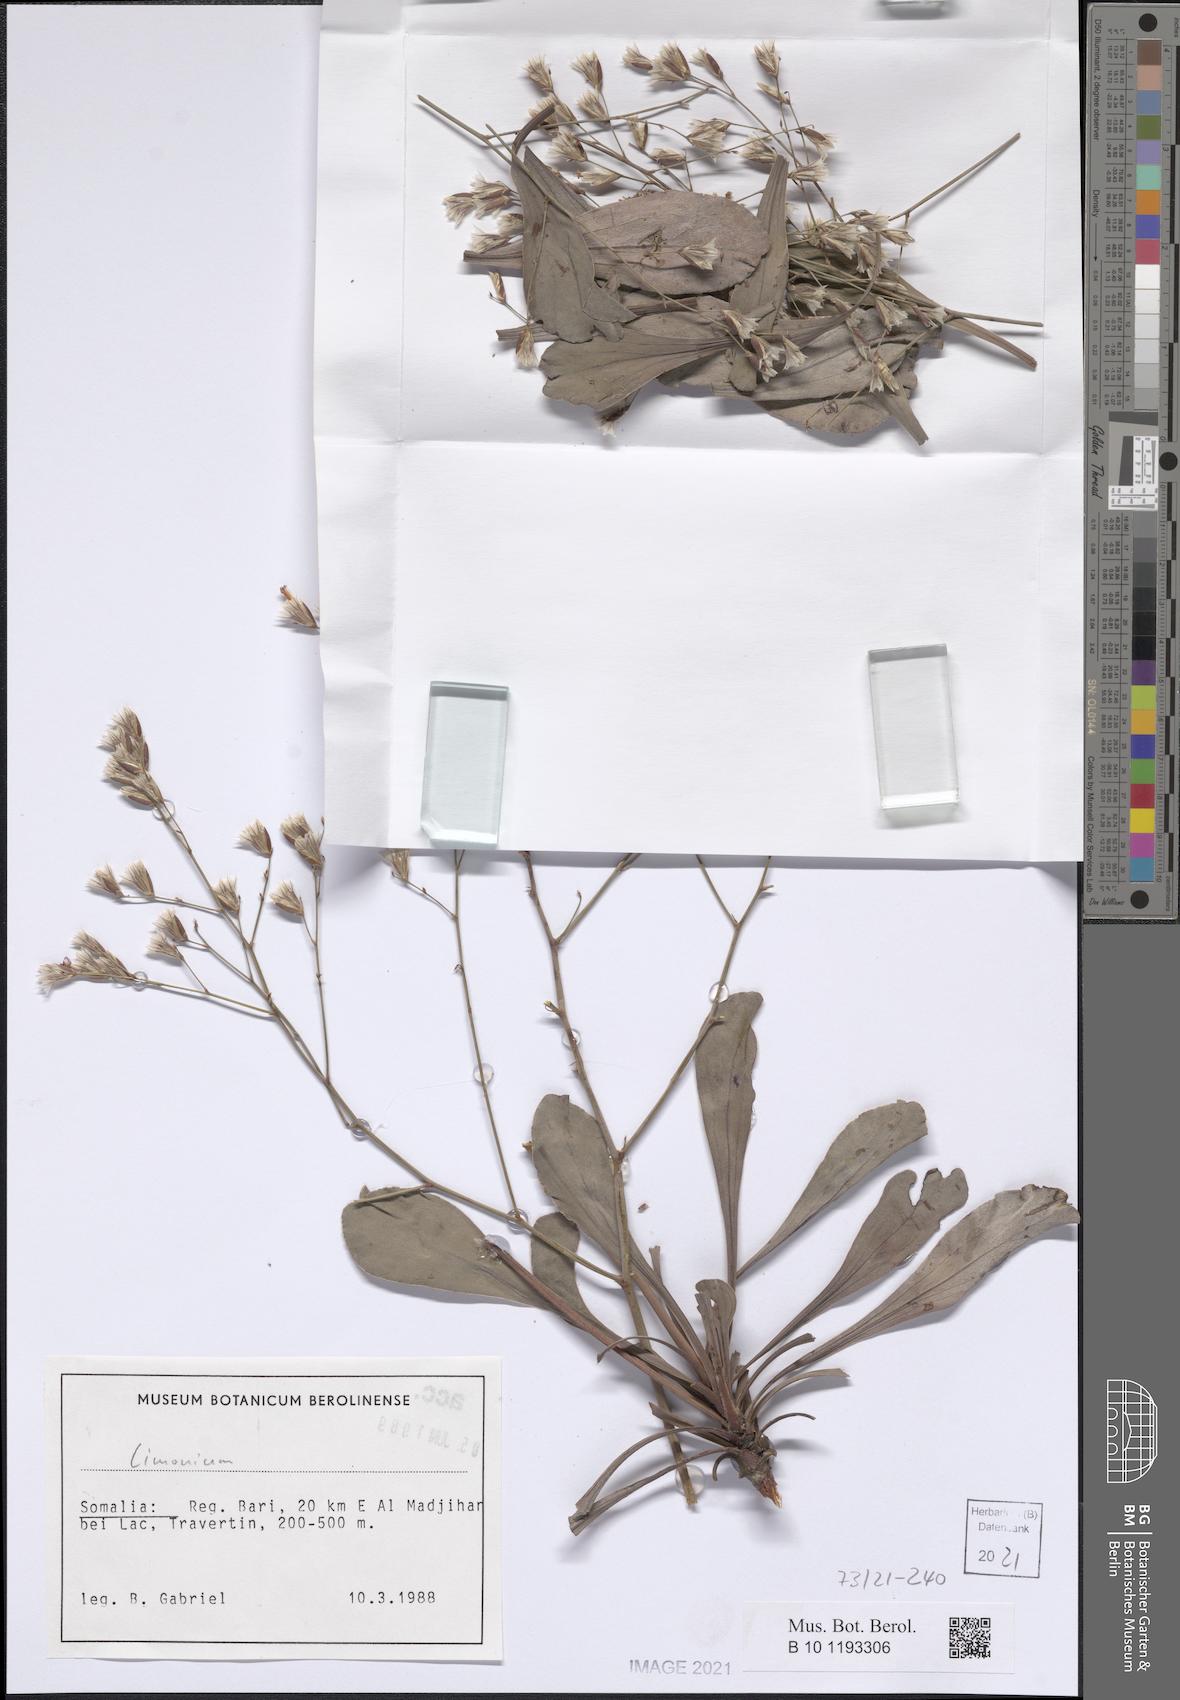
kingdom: Plantae
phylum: Tracheophyta
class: Magnoliopsida
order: Caryophyllales
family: Plumbaginaceae
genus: Limonium
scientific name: Limonium
